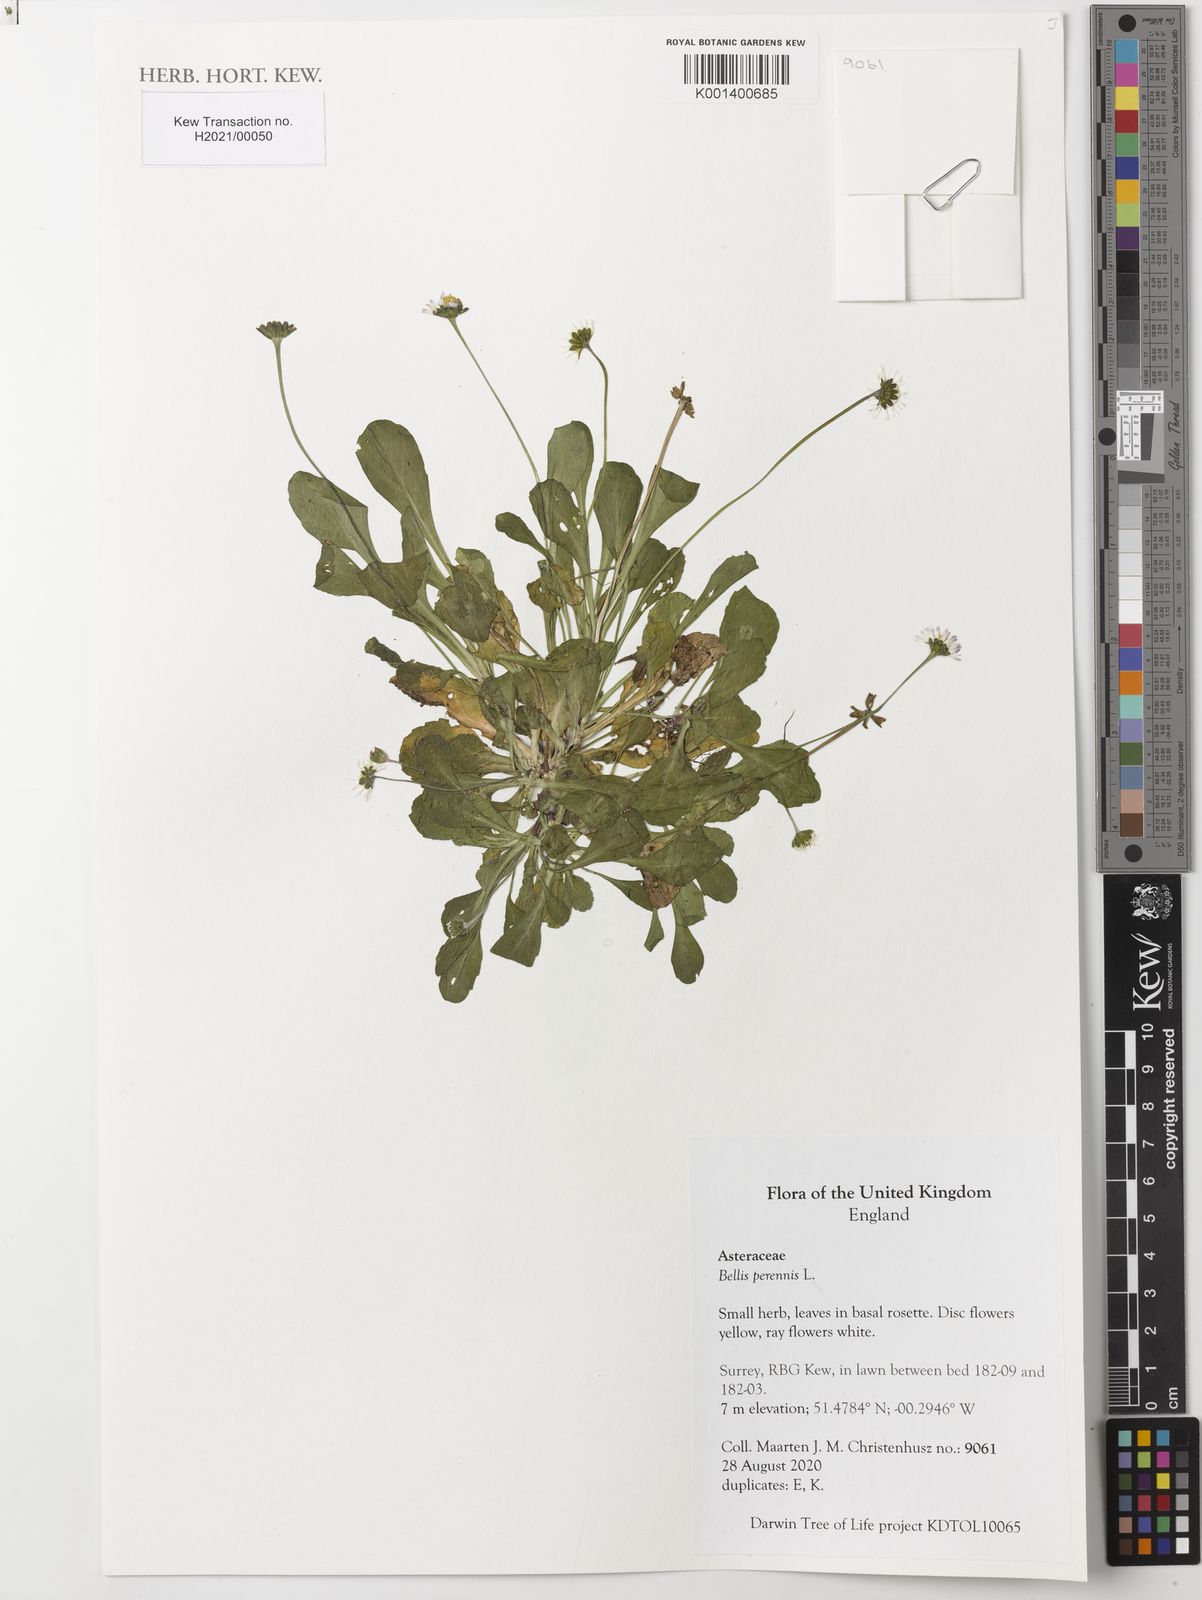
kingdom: Plantae
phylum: Tracheophyta
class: Magnoliopsida
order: Asterales
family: Asteraceae
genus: Bellis
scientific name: Bellis perennis
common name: Lawndaisy
